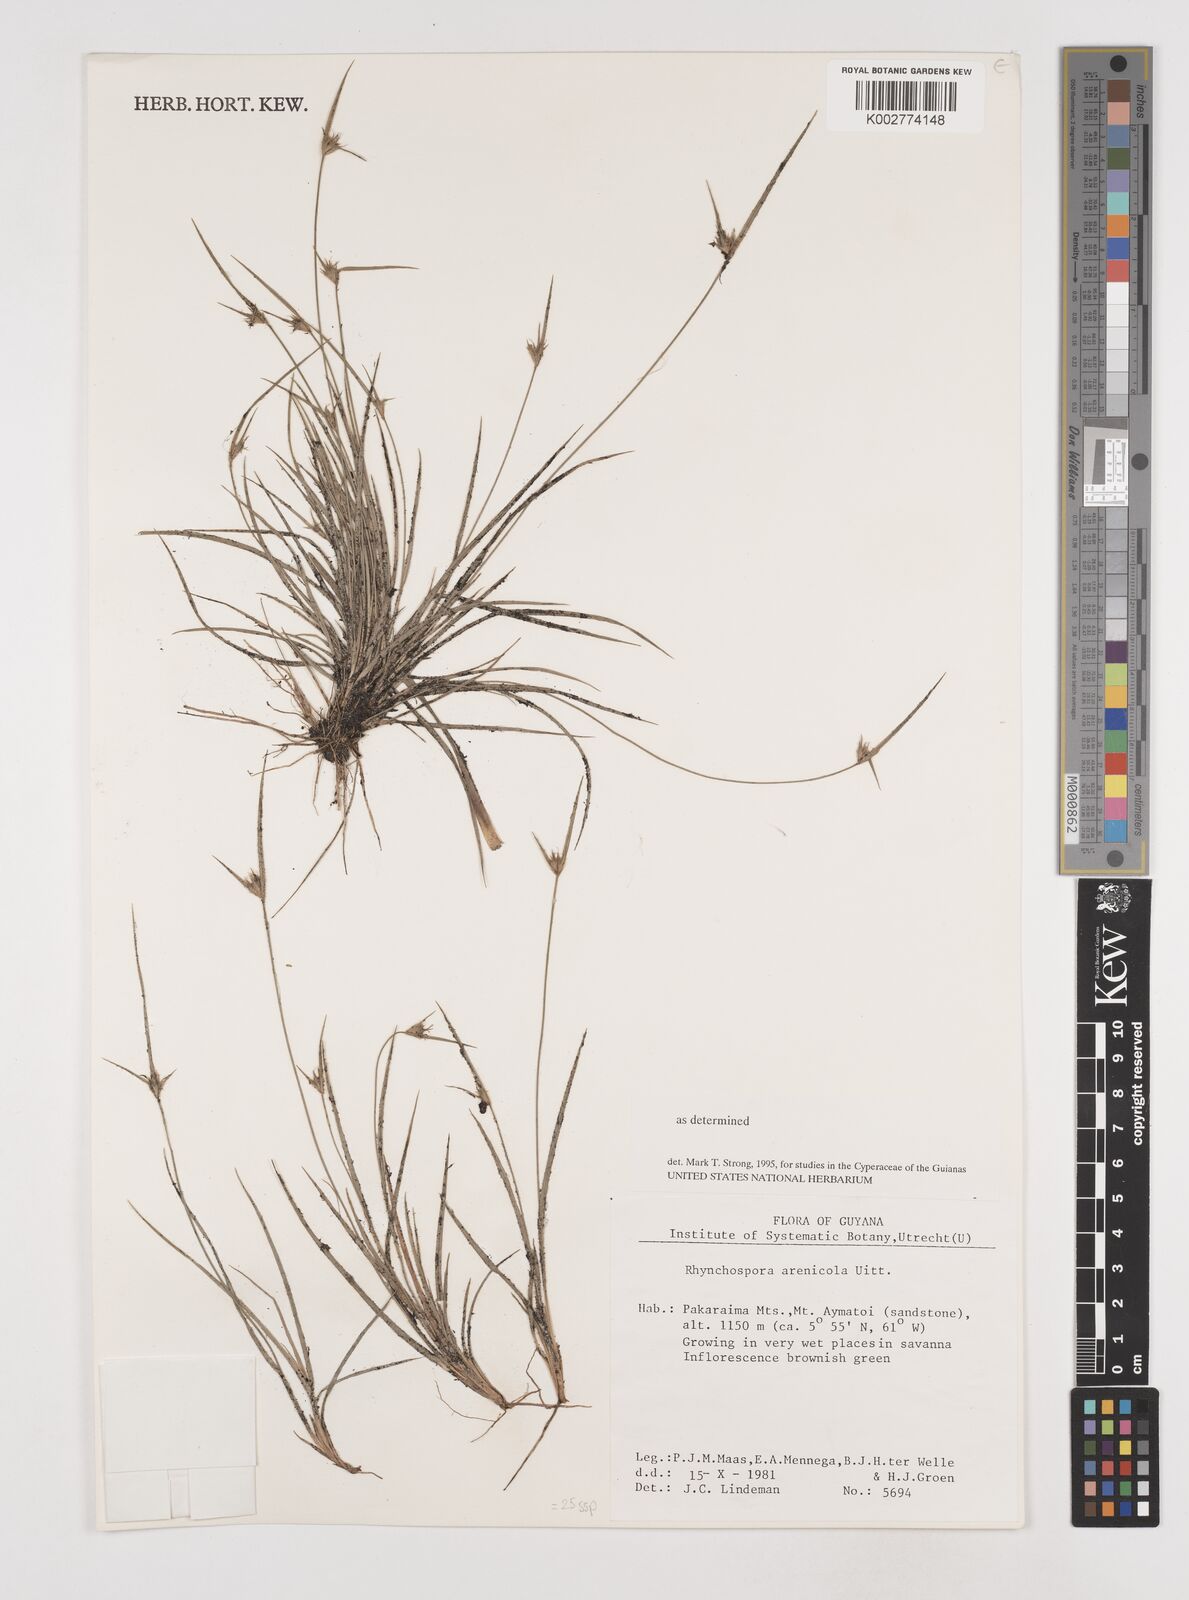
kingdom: Plantae
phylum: Tracheophyta
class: Liliopsida
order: Poales
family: Cyperaceae
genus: Rhynchospora
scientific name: Rhynchospora arenicola
